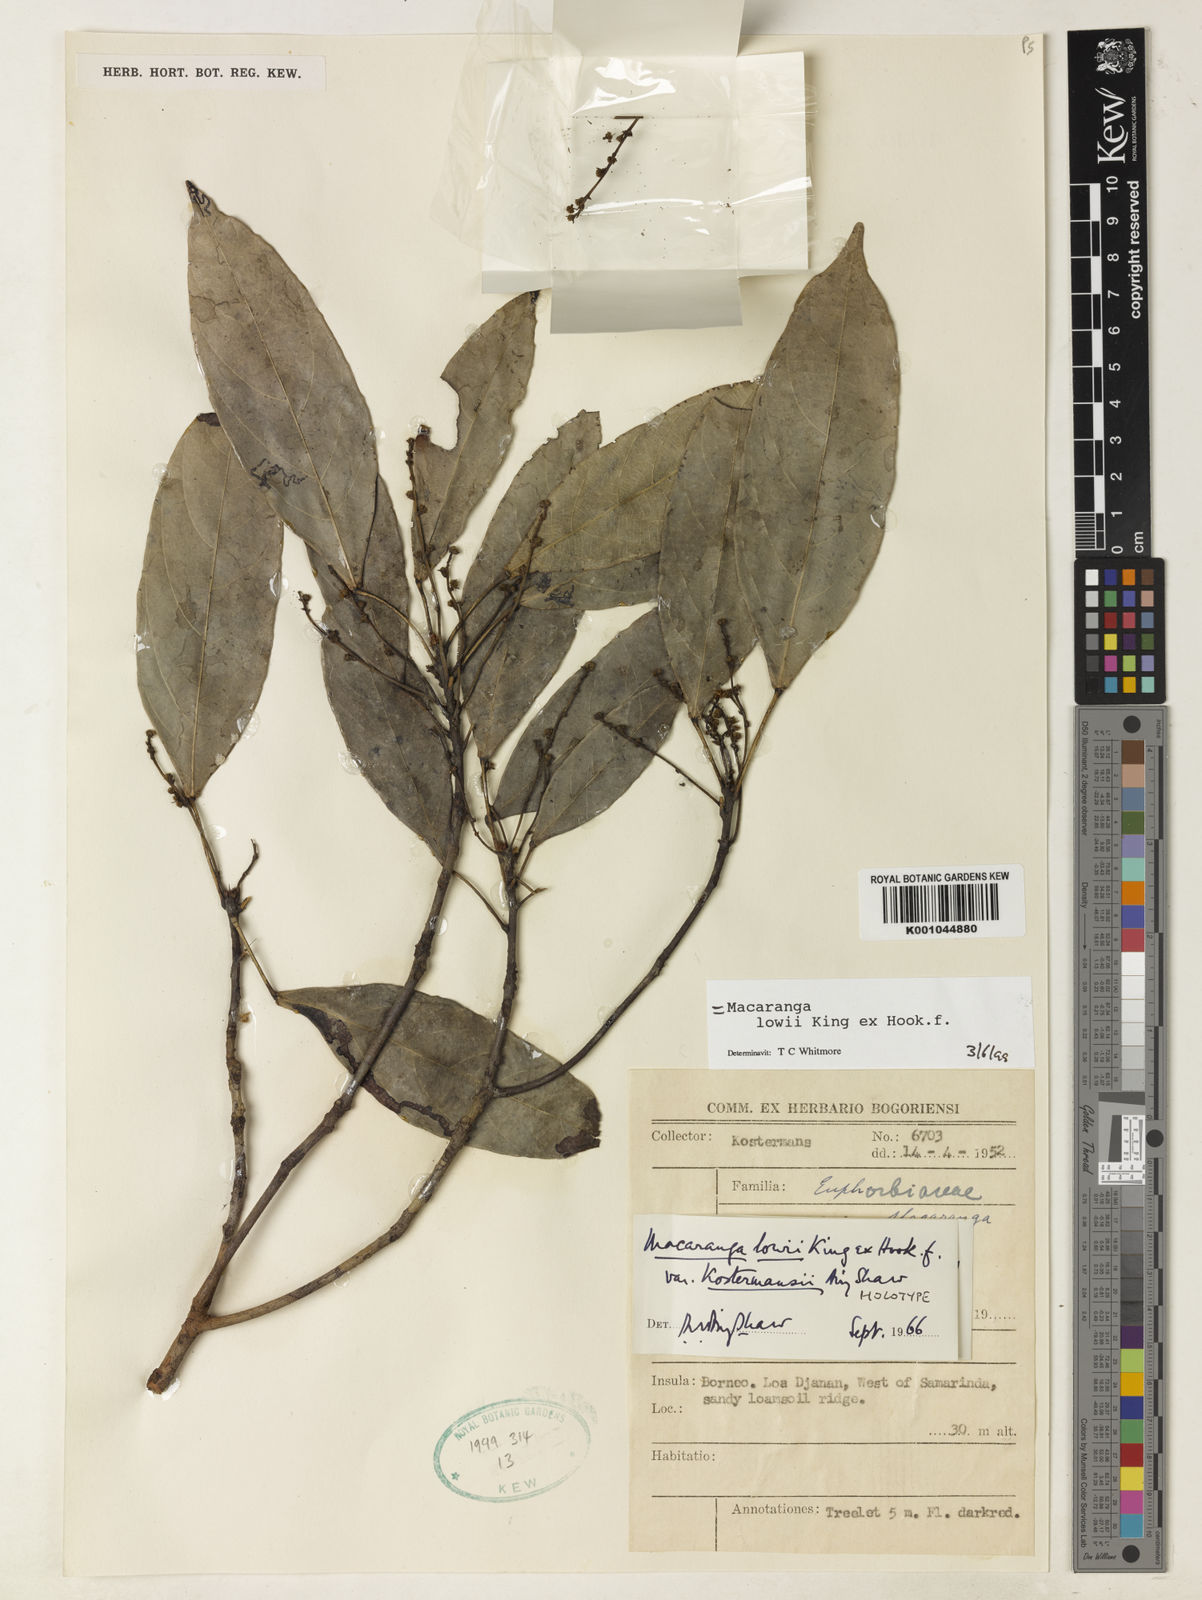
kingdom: Plantae
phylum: Tracheophyta
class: Magnoliopsida
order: Malpighiales
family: Euphorbiaceae
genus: Macaranga
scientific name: Macaranga lowii
